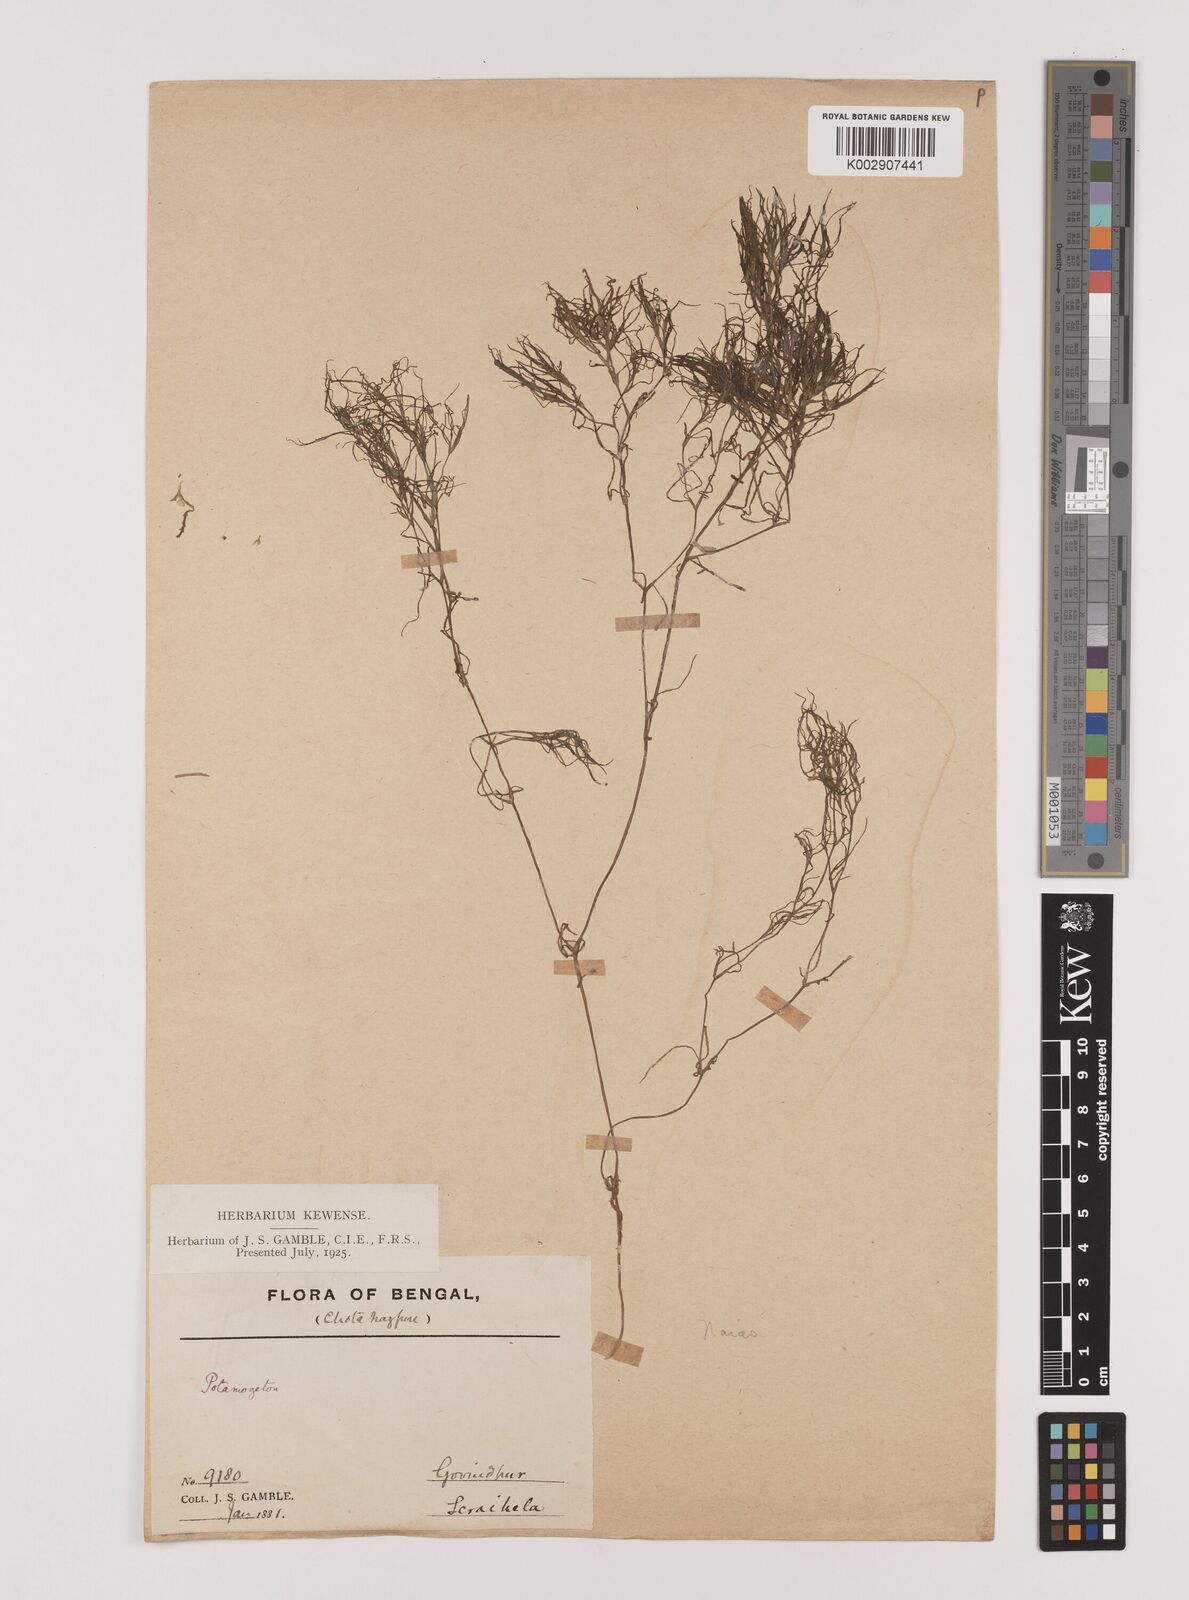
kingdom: Plantae
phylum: Tracheophyta
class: Liliopsida
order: Alismatales
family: Hydrocharitaceae
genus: Najas
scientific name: Najas indica
